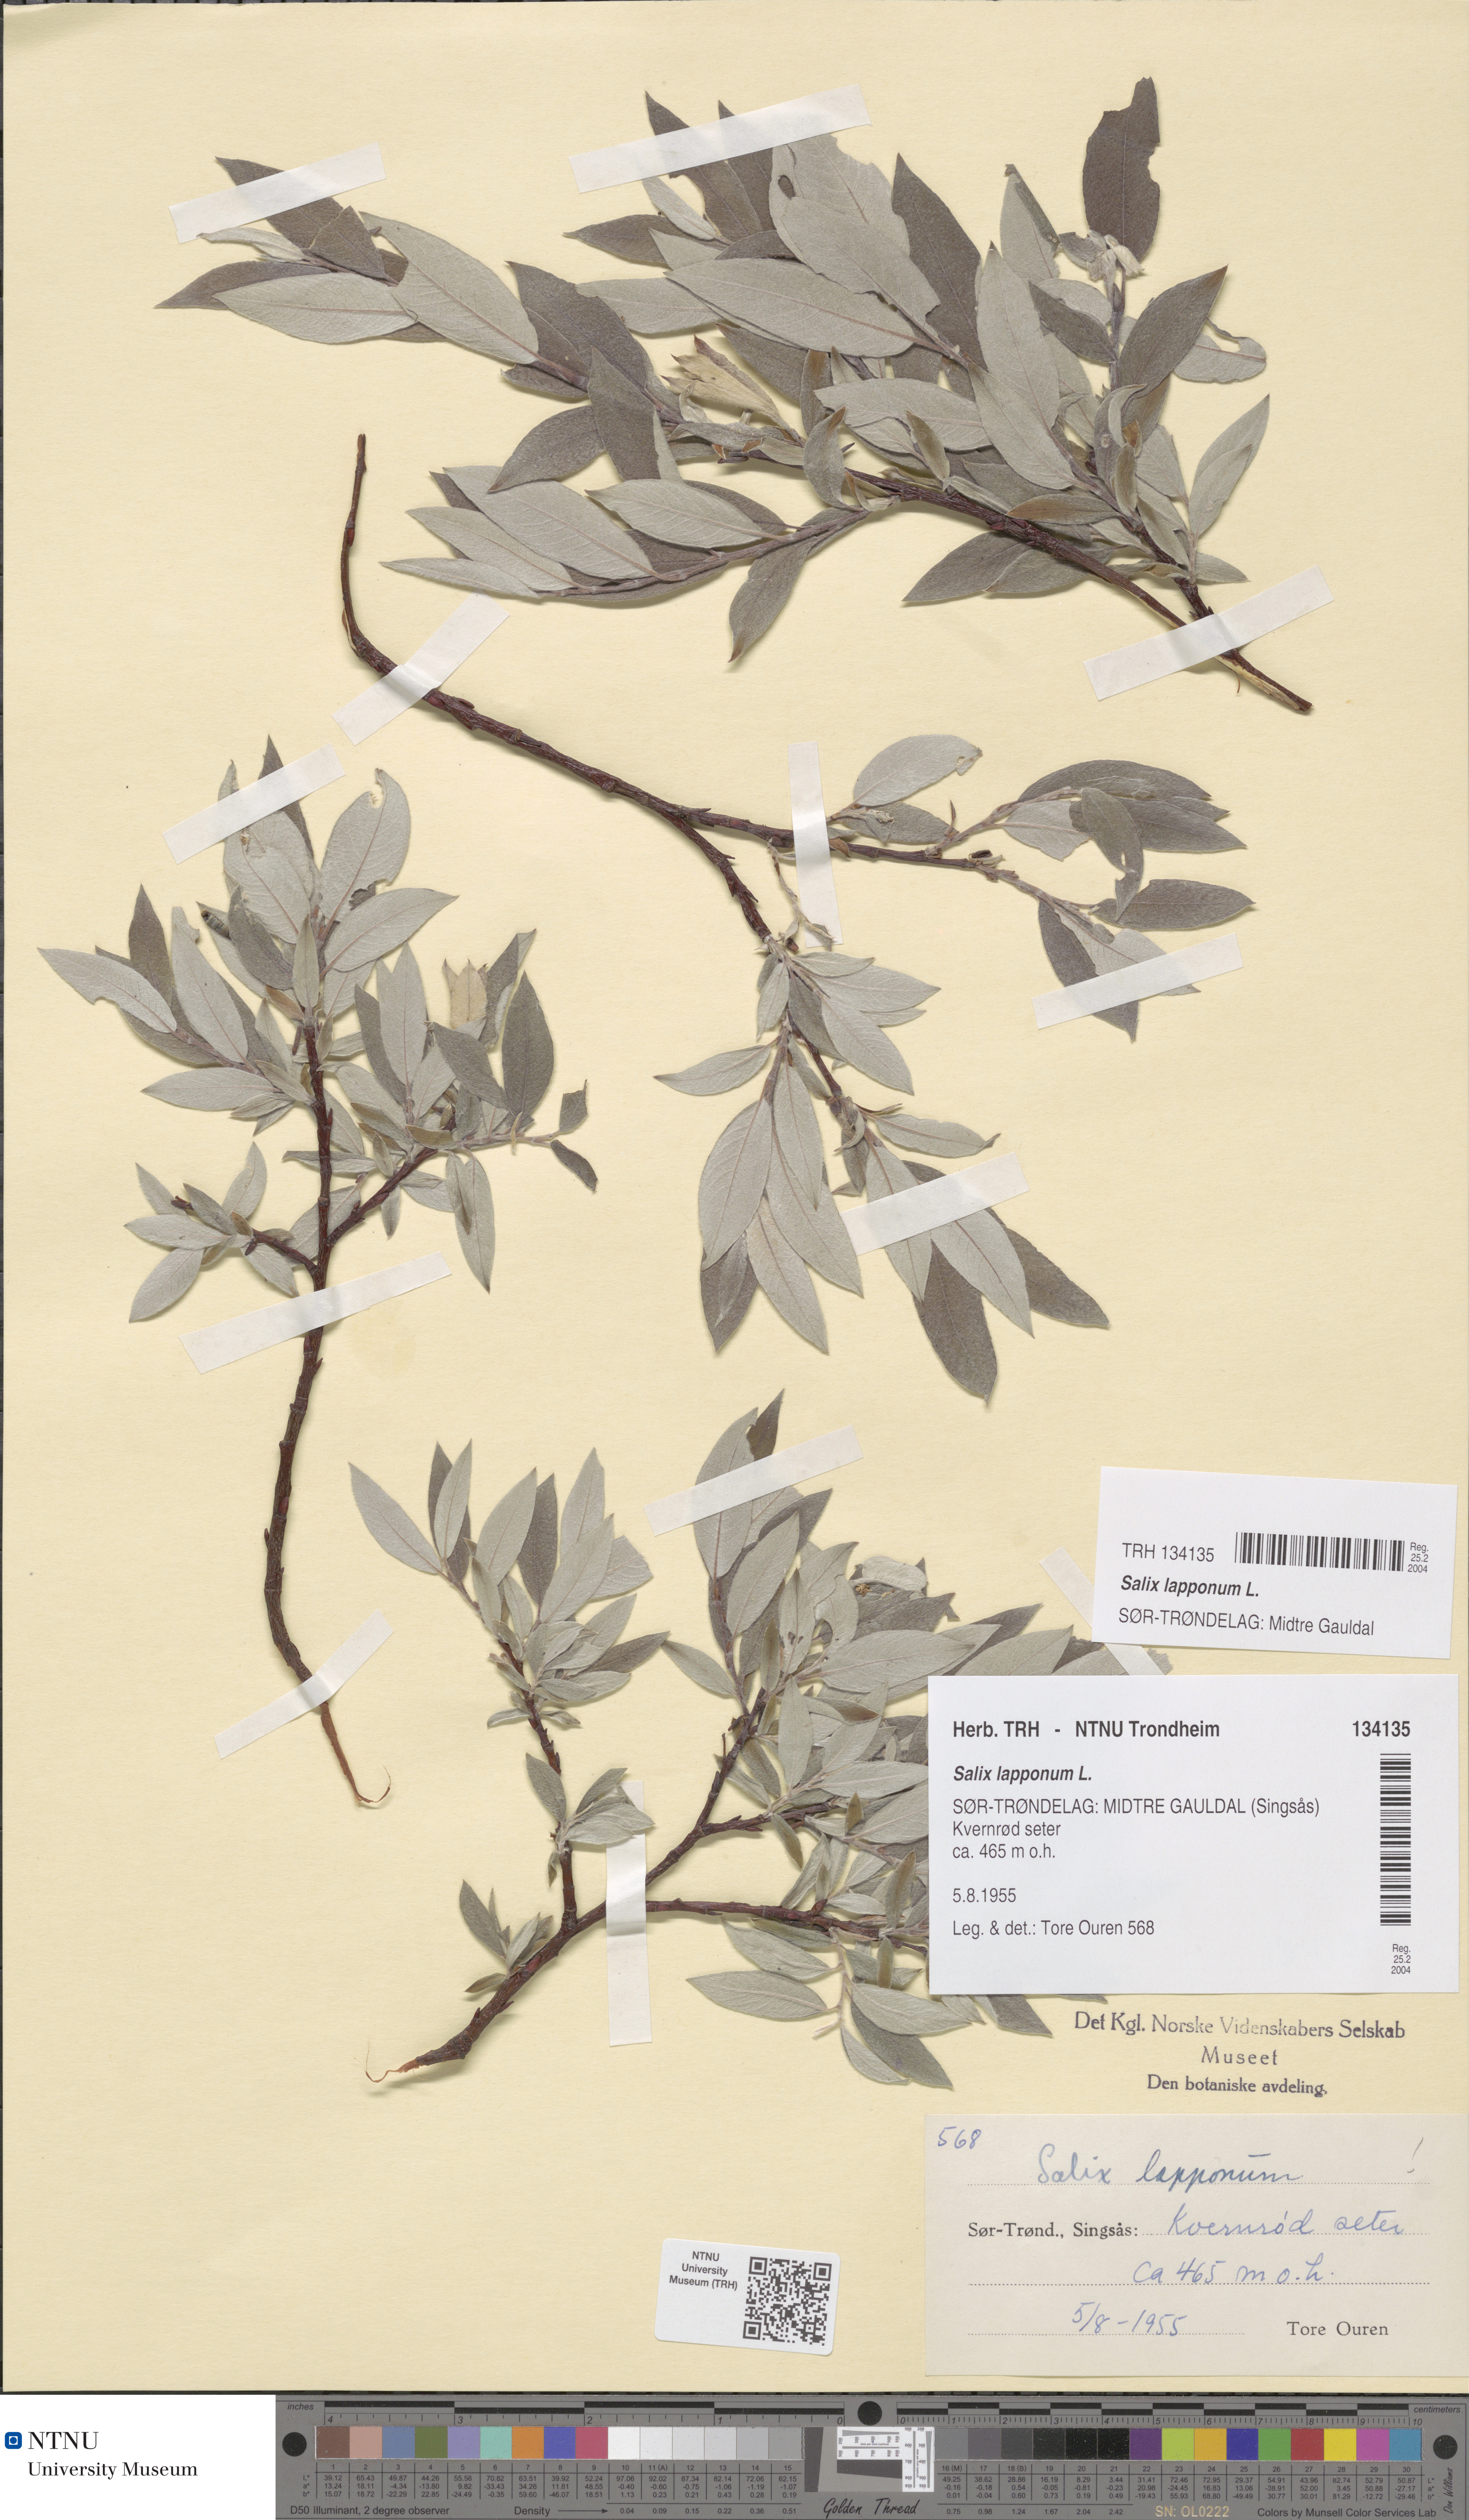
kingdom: Plantae
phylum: Tracheophyta
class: Magnoliopsida
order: Malpighiales
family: Salicaceae
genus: Salix
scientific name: Salix lapponum
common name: Downy willow
